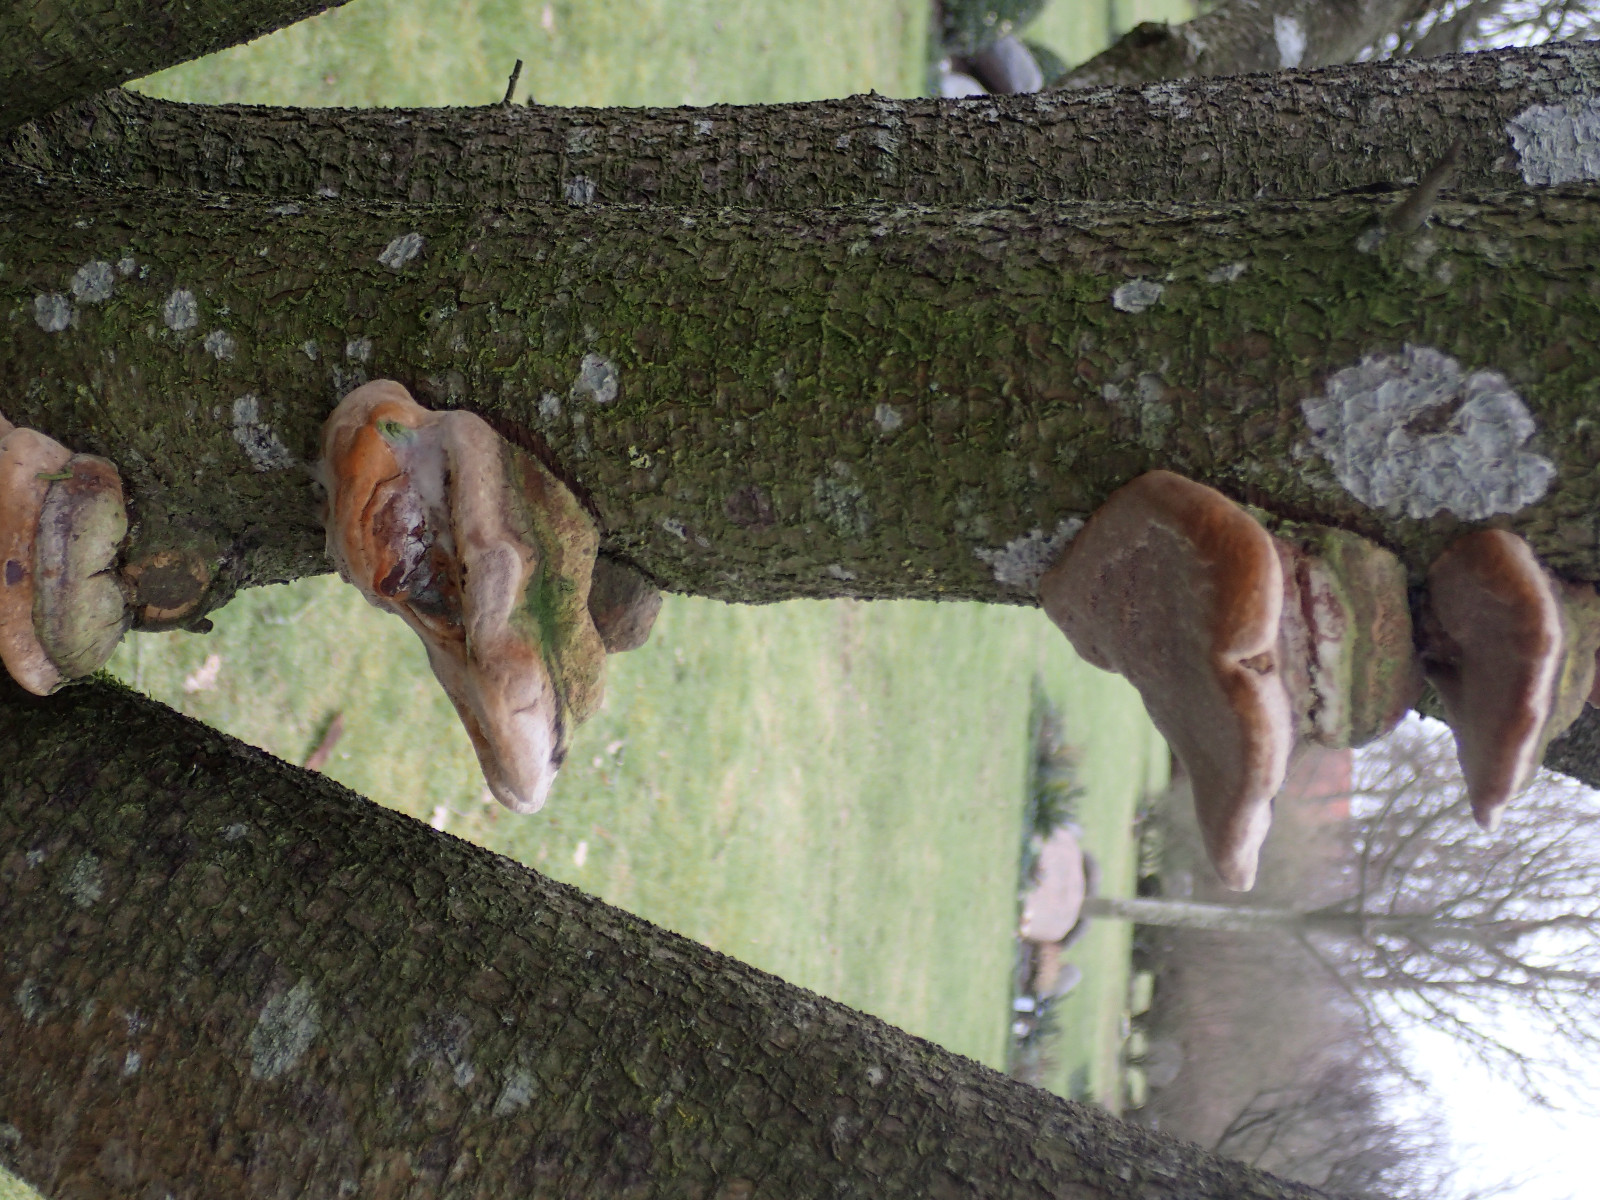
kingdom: Fungi
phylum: Basidiomycota
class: Agaricomycetes
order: Hymenochaetales
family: Hymenochaetaceae
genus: Phellinus
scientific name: Phellinus pomaceus
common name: blomme-ildporesvamp
